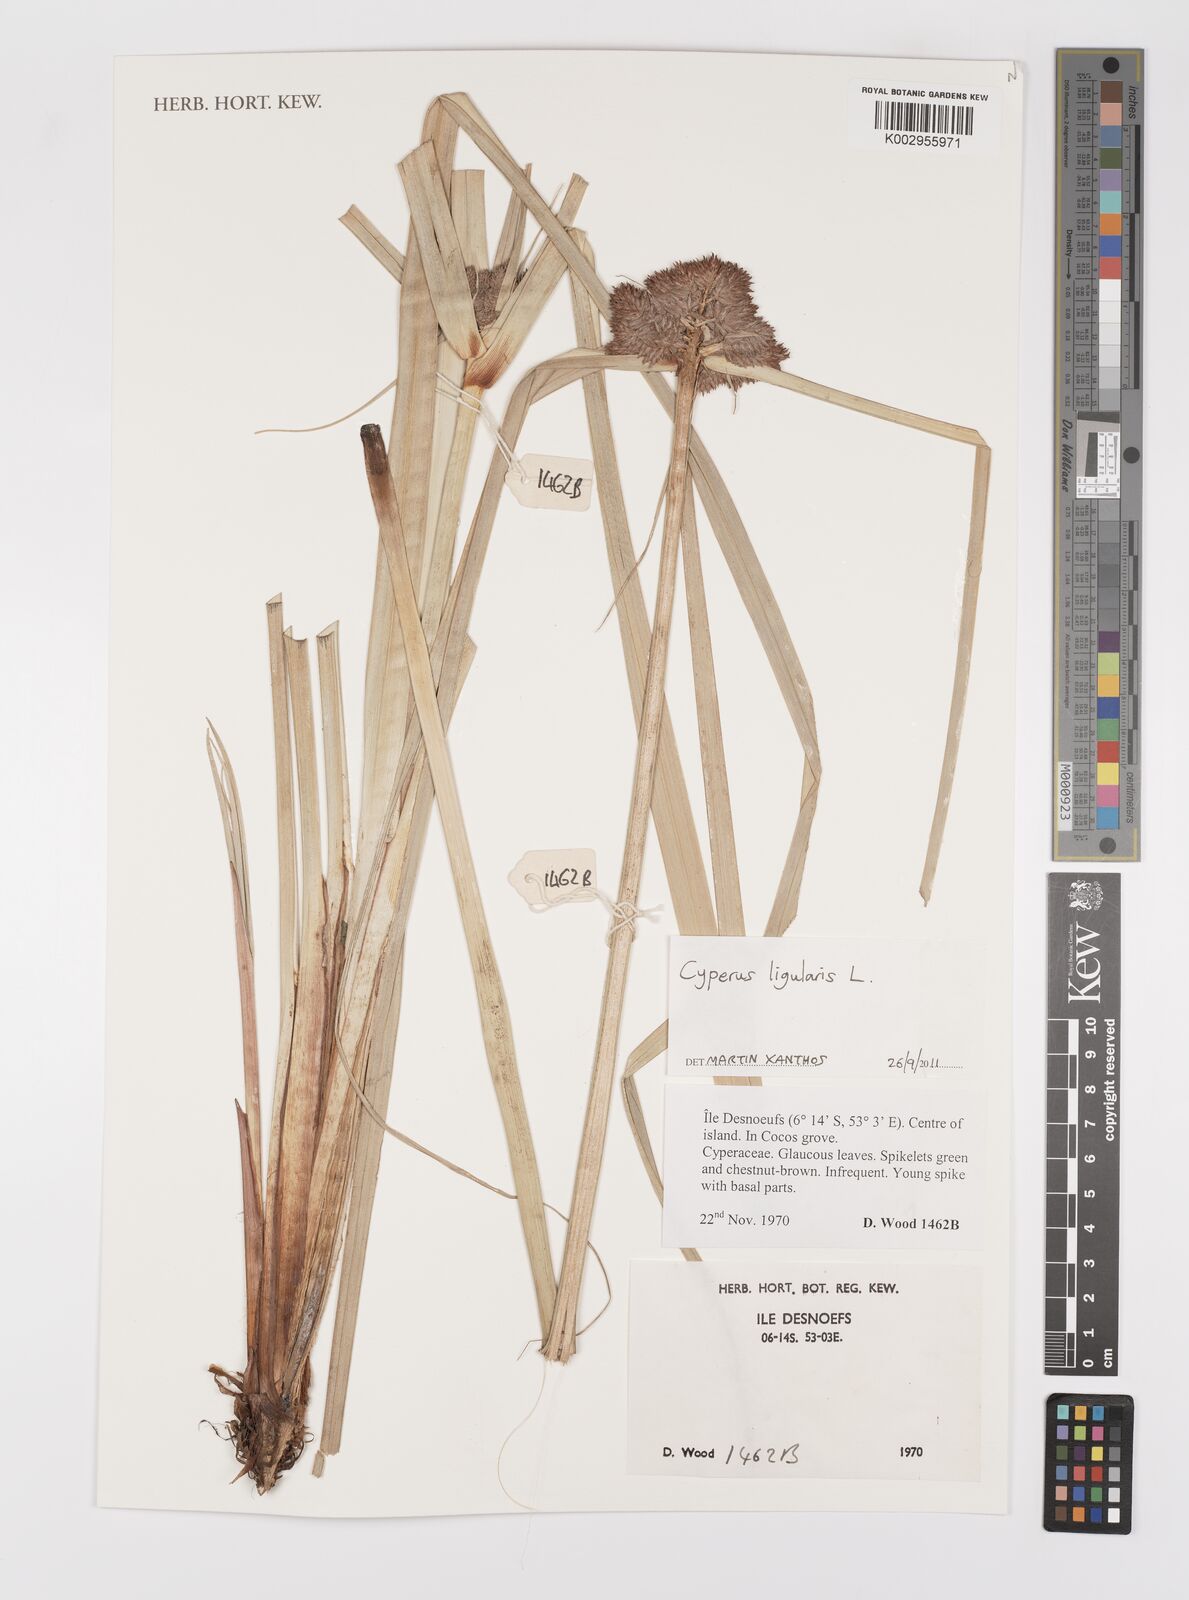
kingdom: Plantae
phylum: Tracheophyta
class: Liliopsida
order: Poales
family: Cyperaceae
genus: Cyperus
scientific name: Cyperus ligularis
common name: Swamp flat sedge
